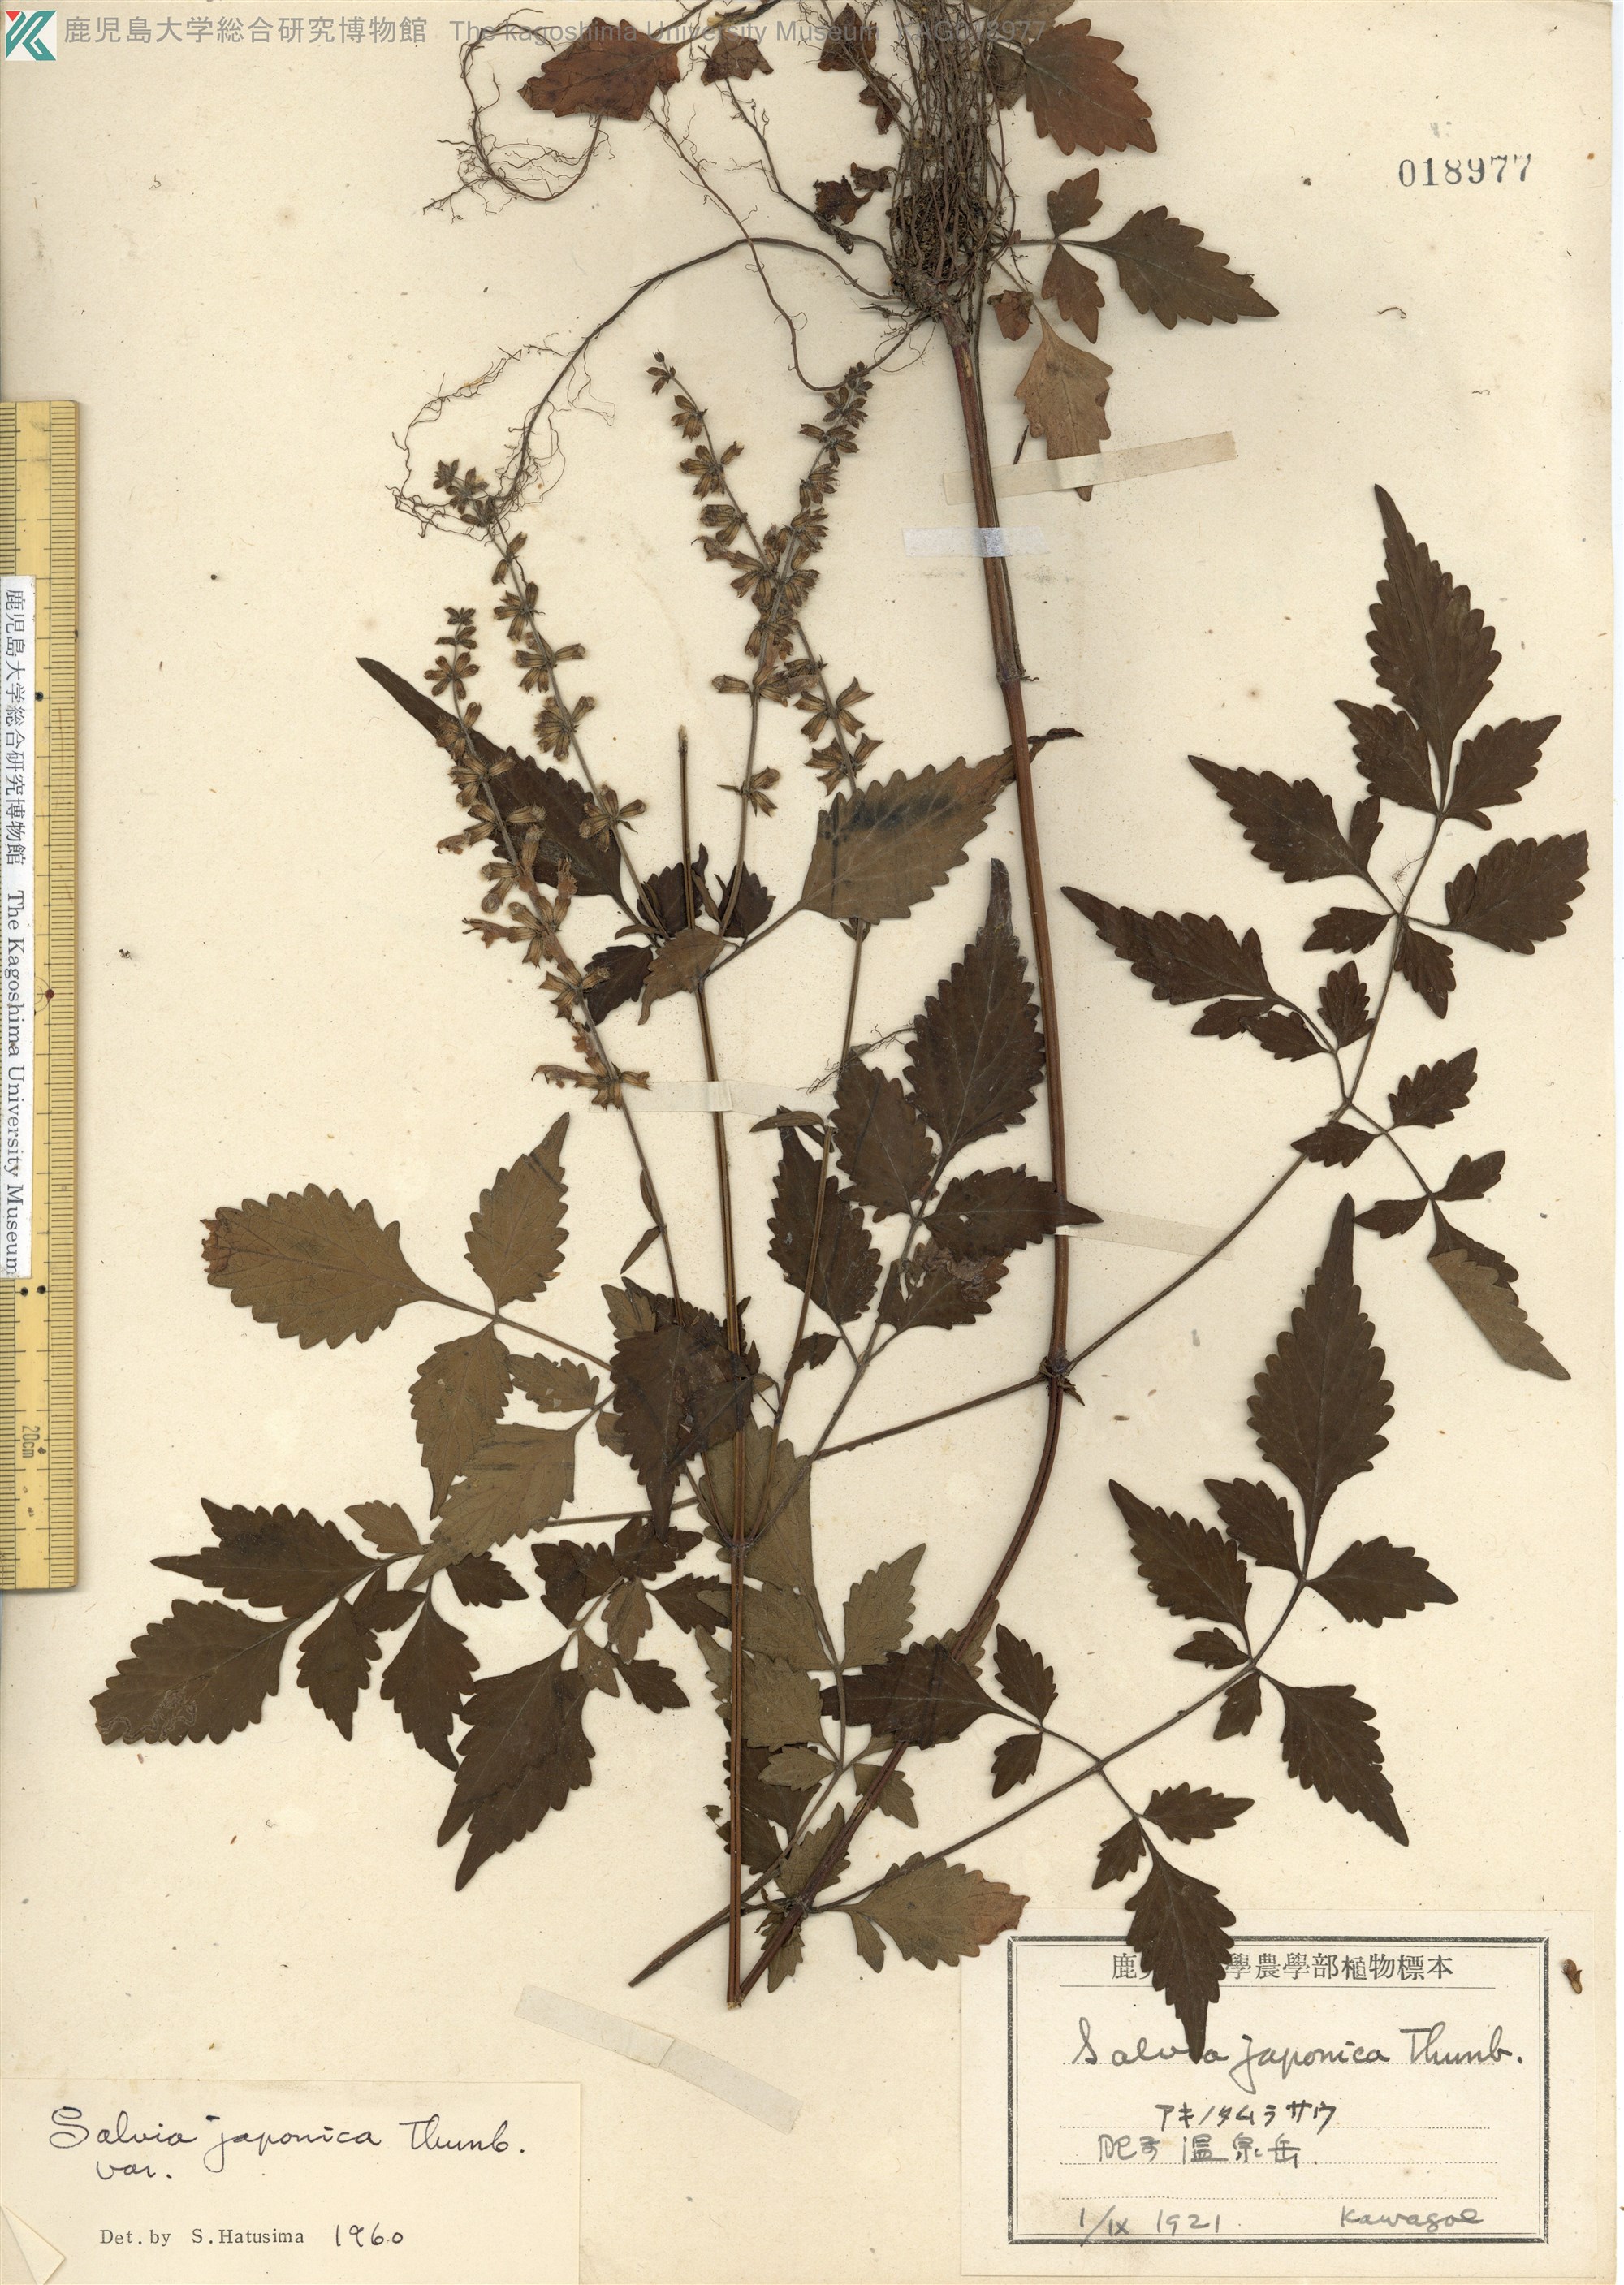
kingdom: Plantae
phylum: Tracheophyta
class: Magnoliopsida
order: Lamiales
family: Lamiaceae
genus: Salvia
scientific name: Salvia japonica
